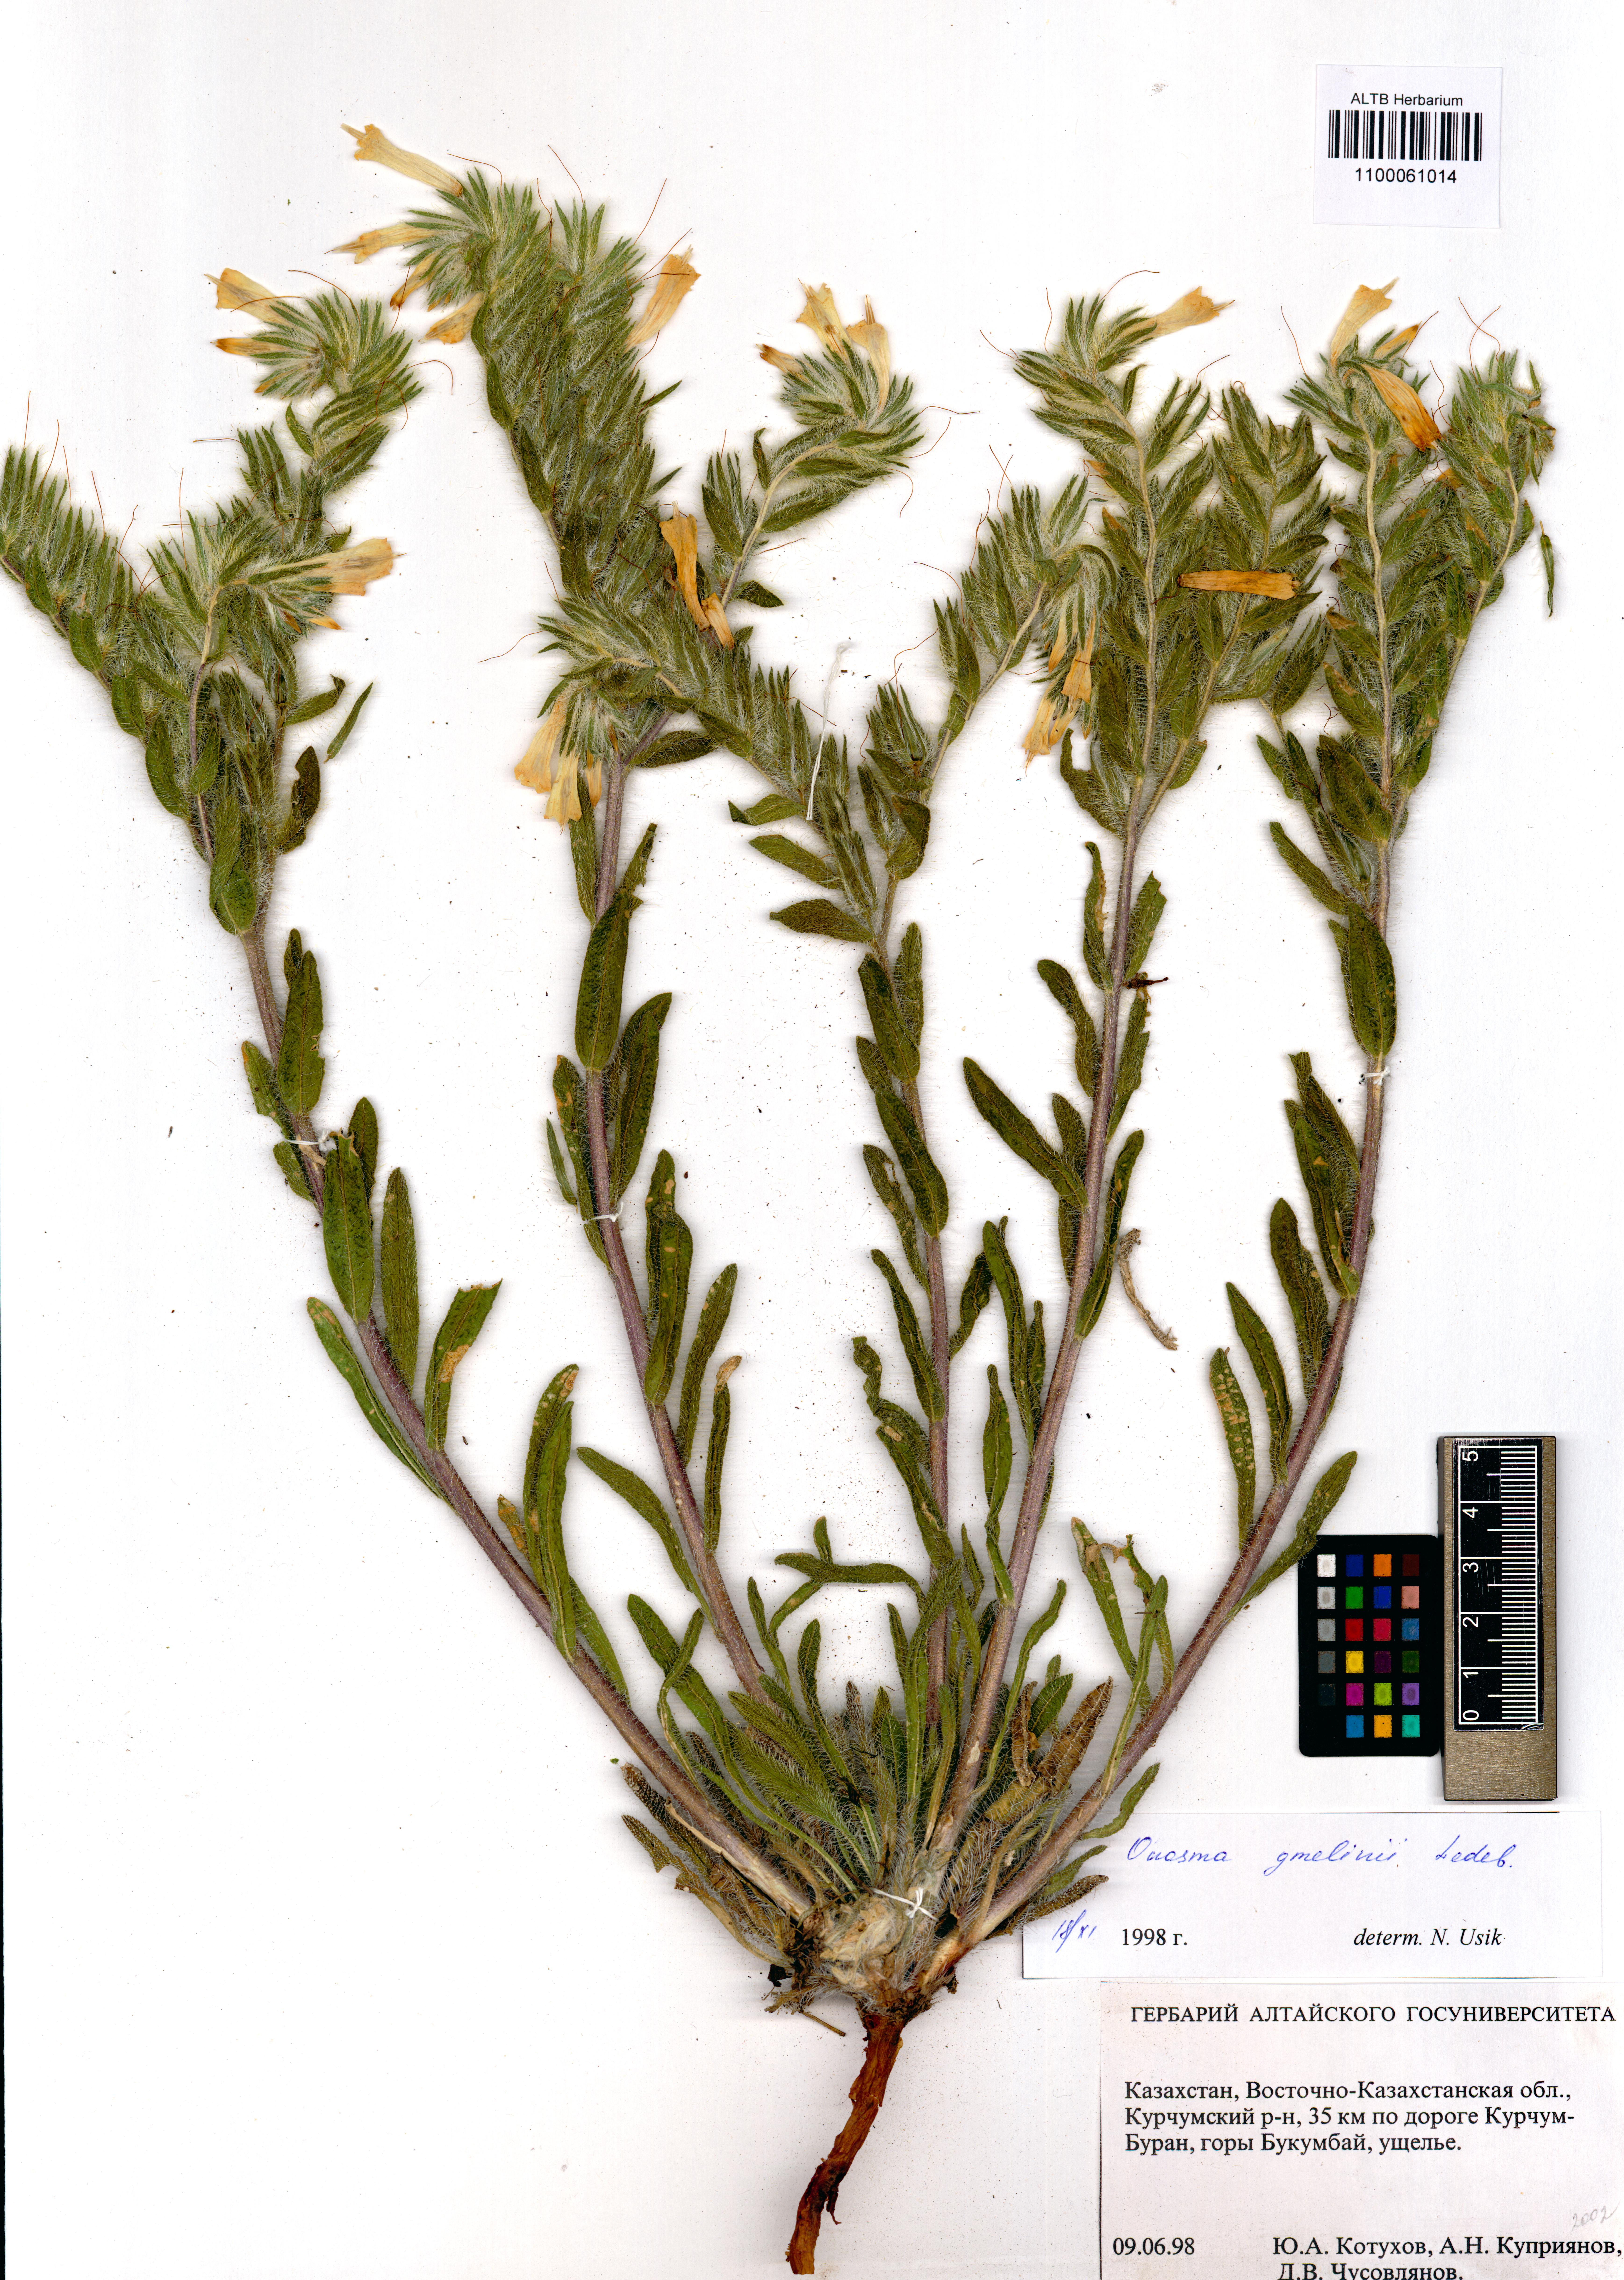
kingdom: Plantae
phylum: Tracheophyta
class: Magnoliopsida
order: Boraginales
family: Boraginaceae
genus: Onosma
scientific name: Onosma gmelinii
